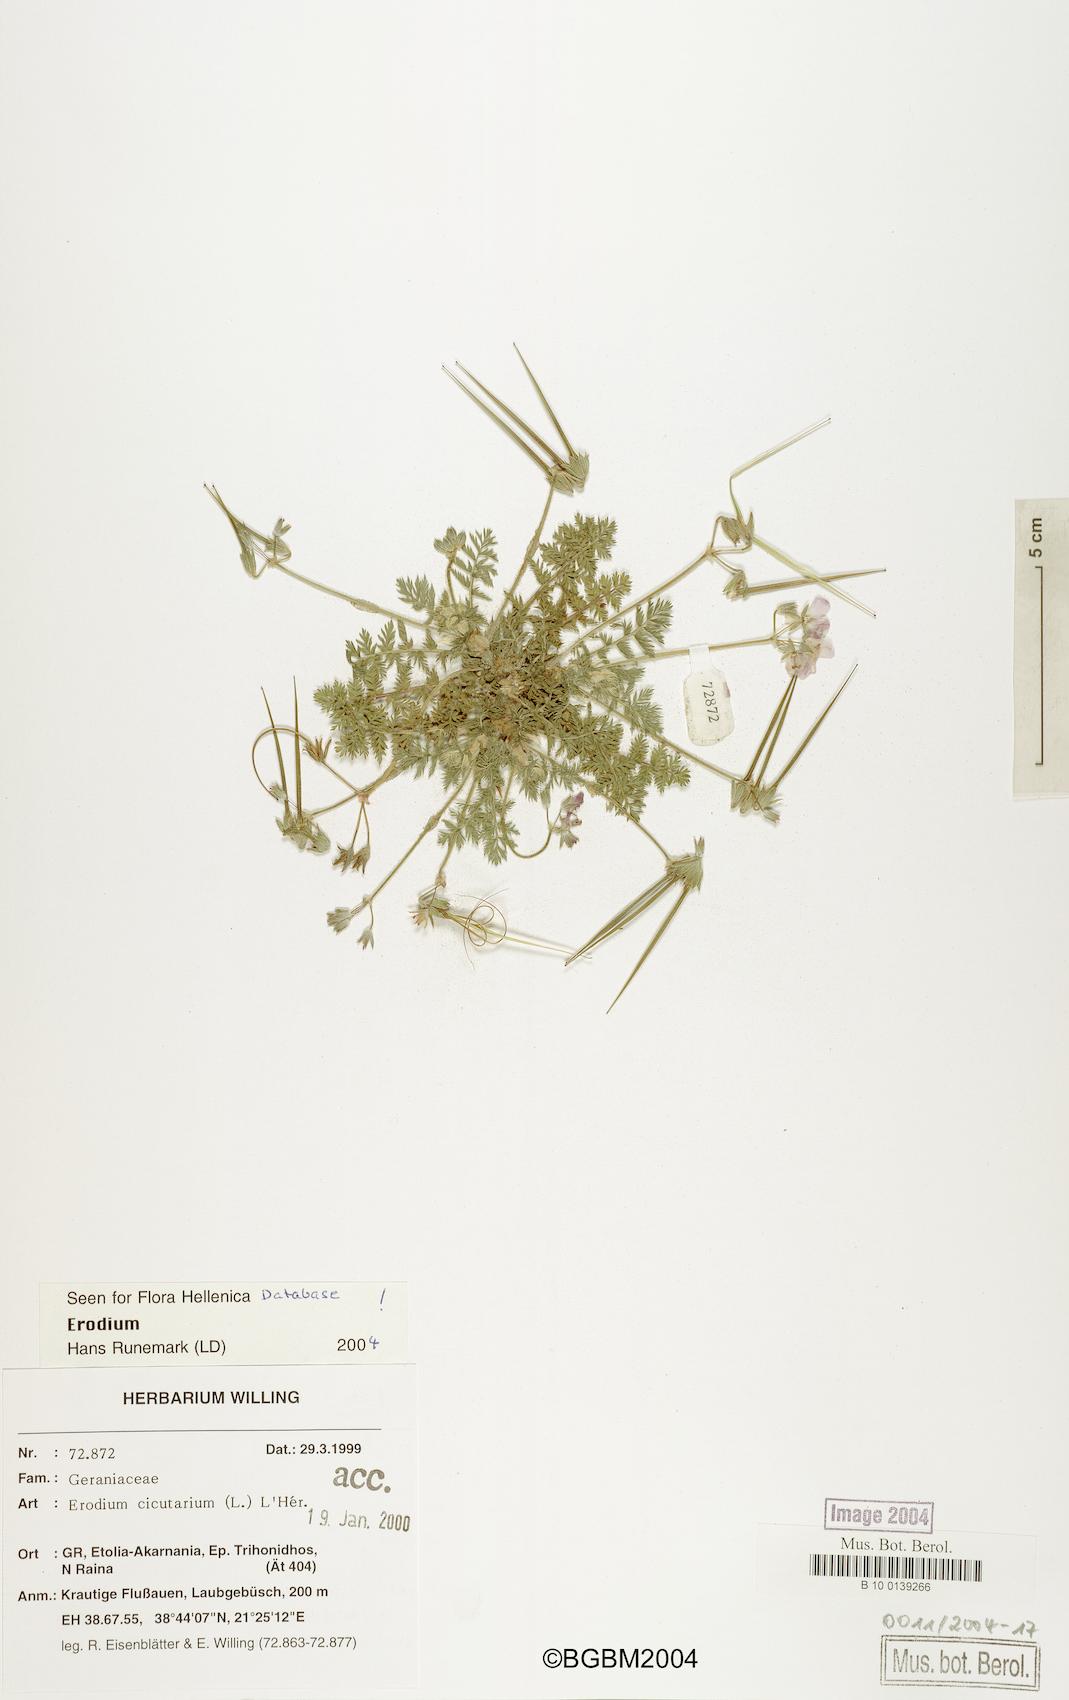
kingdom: Plantae
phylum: Tracheophyta
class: Magnoliopsida
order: Geraniales
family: Geraniaceae
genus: Erodium
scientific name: Erodium cicutarium
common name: Common stork's-bill
